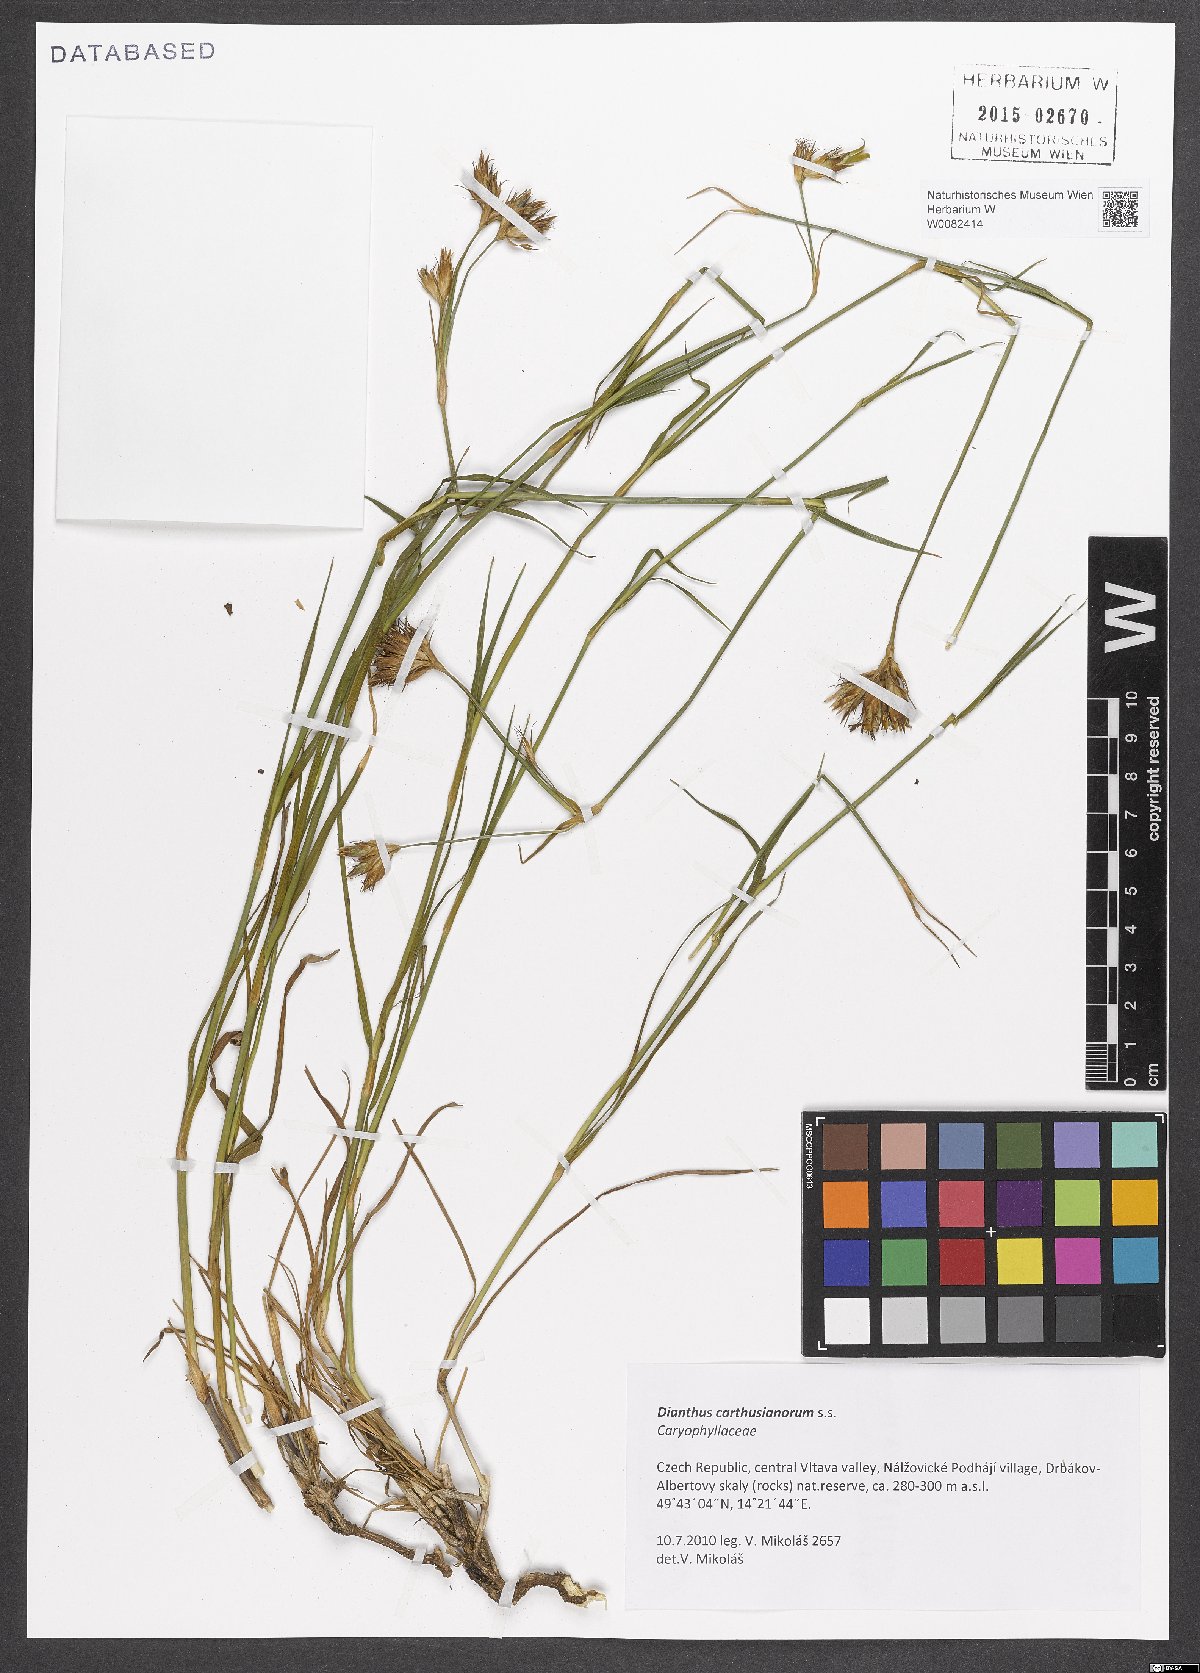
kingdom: Plantae
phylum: Tracheophyta
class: Magnoliopsida
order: Caryophyllales
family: Caryophyllaceae
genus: Dianthus
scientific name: Dianthus carthusianorum
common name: Carthusian pink
